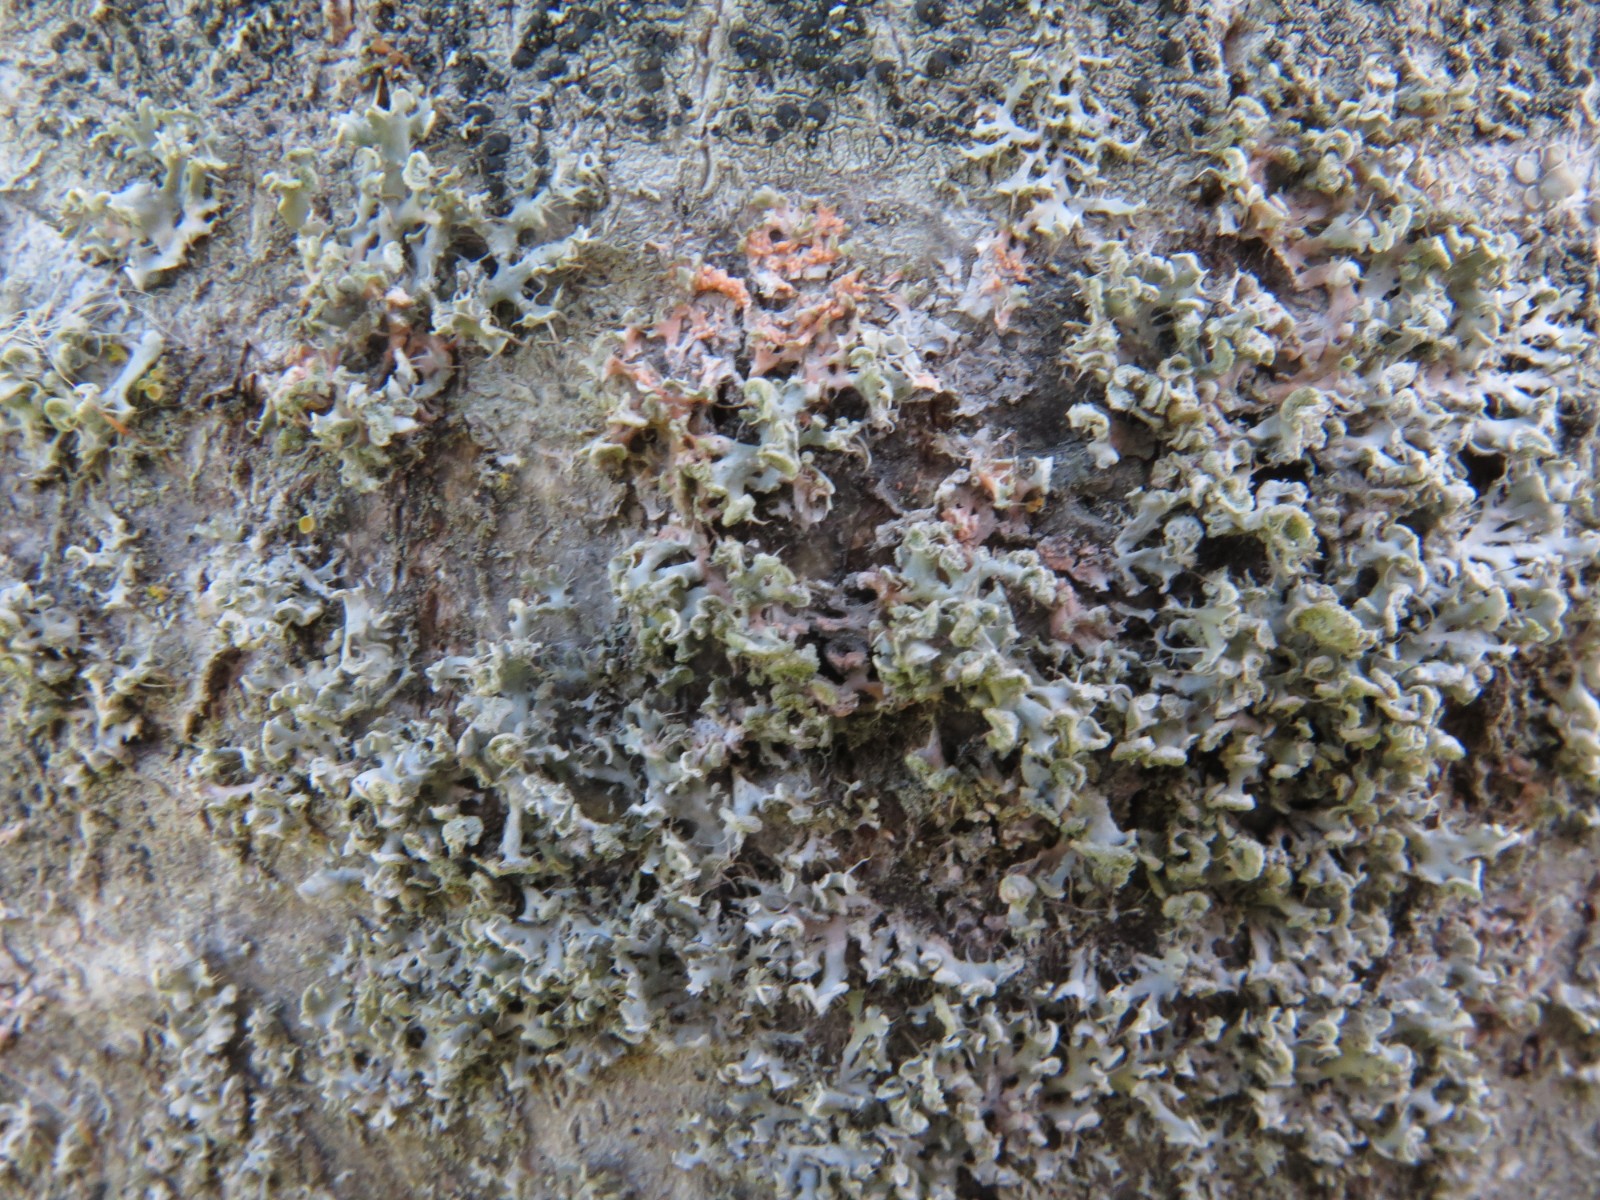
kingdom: Fungi
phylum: Basidiomycota
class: Agaricomycetes
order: Corticiales
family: Corticiaceae
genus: Erythricium
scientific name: Erythricium aurantiacum
